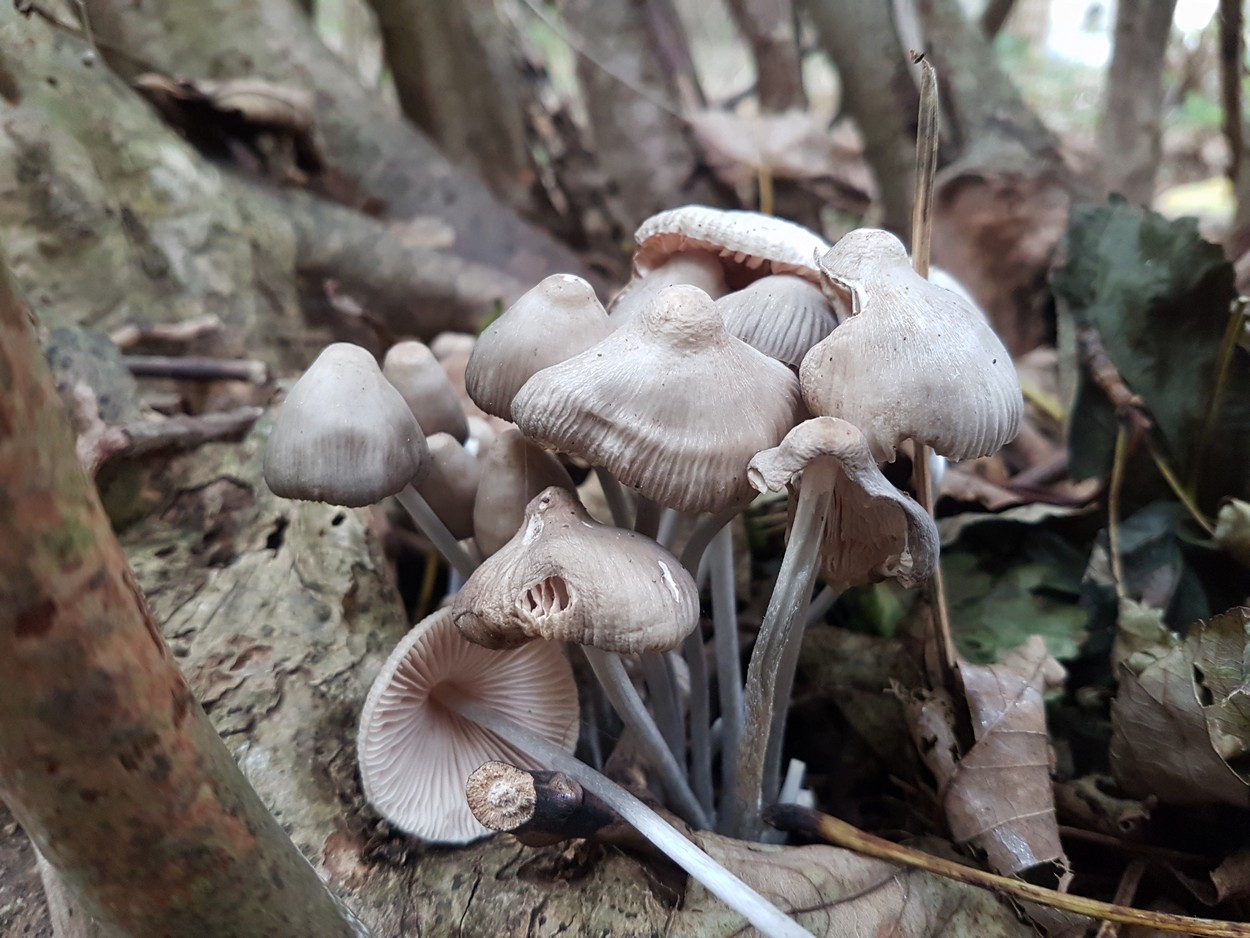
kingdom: Fungi
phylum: Basidiomycota
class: Agaricomycetes
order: Agaricales
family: Mycenaceae
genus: Mycena
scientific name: Mycena polygramma
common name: mangestribet huesvamp
